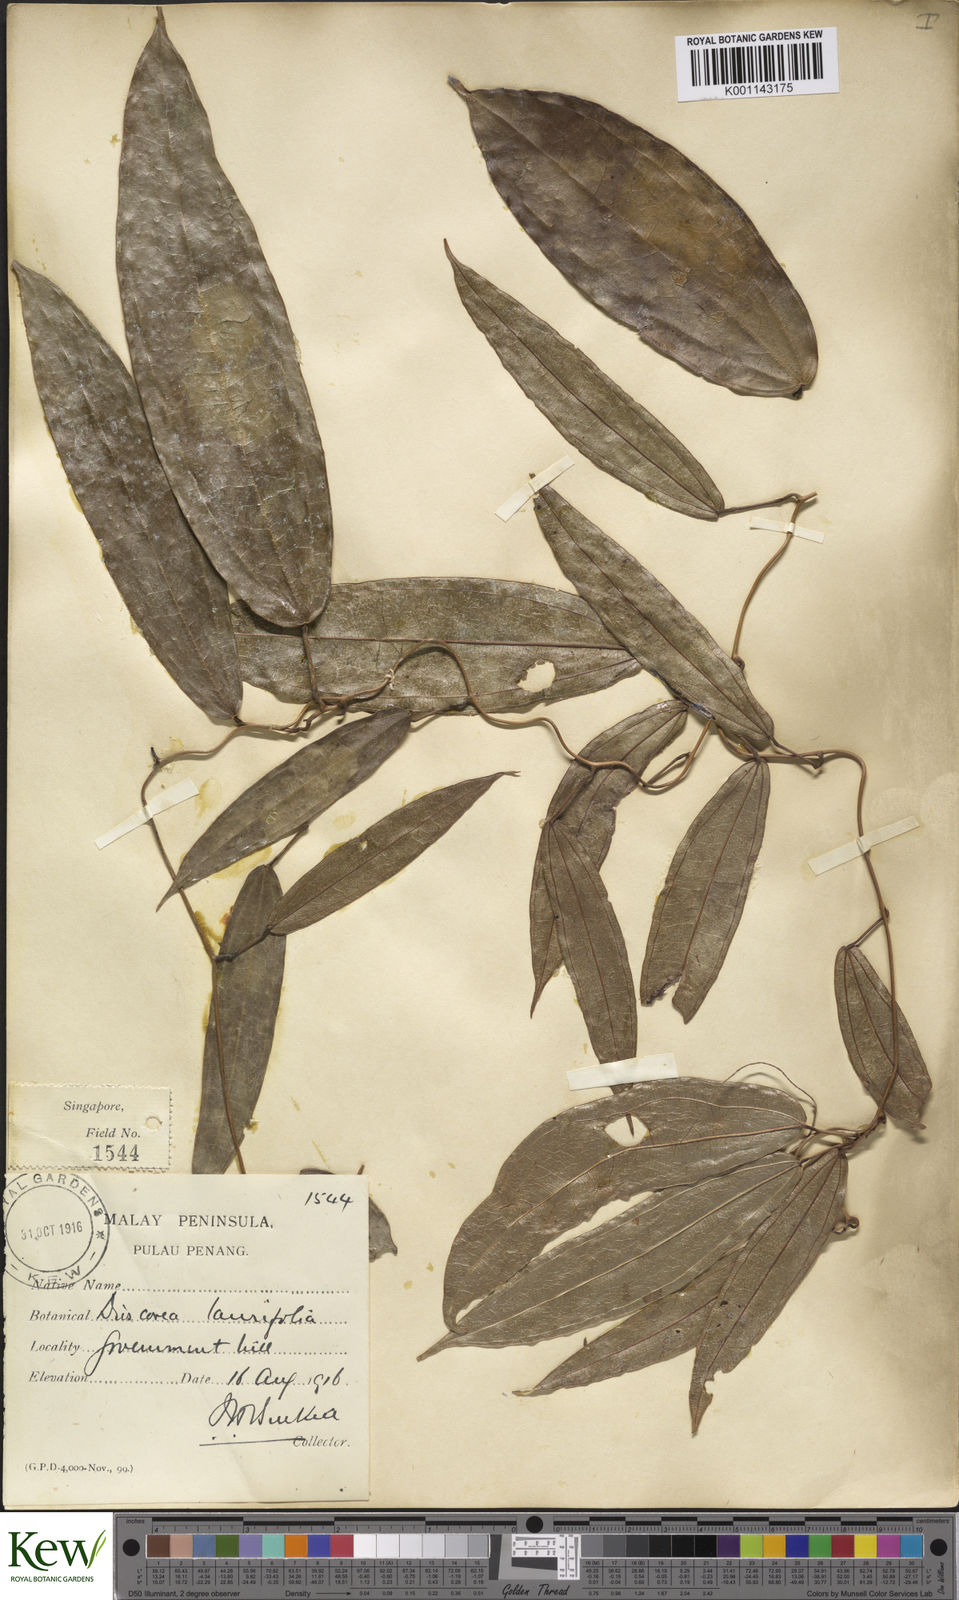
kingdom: Plantae
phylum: Tracheophyta
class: Liliopsida
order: Dioscoreales
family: Dioscoreaceae
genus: Dioscorea
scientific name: Dioscorea laurifolia
